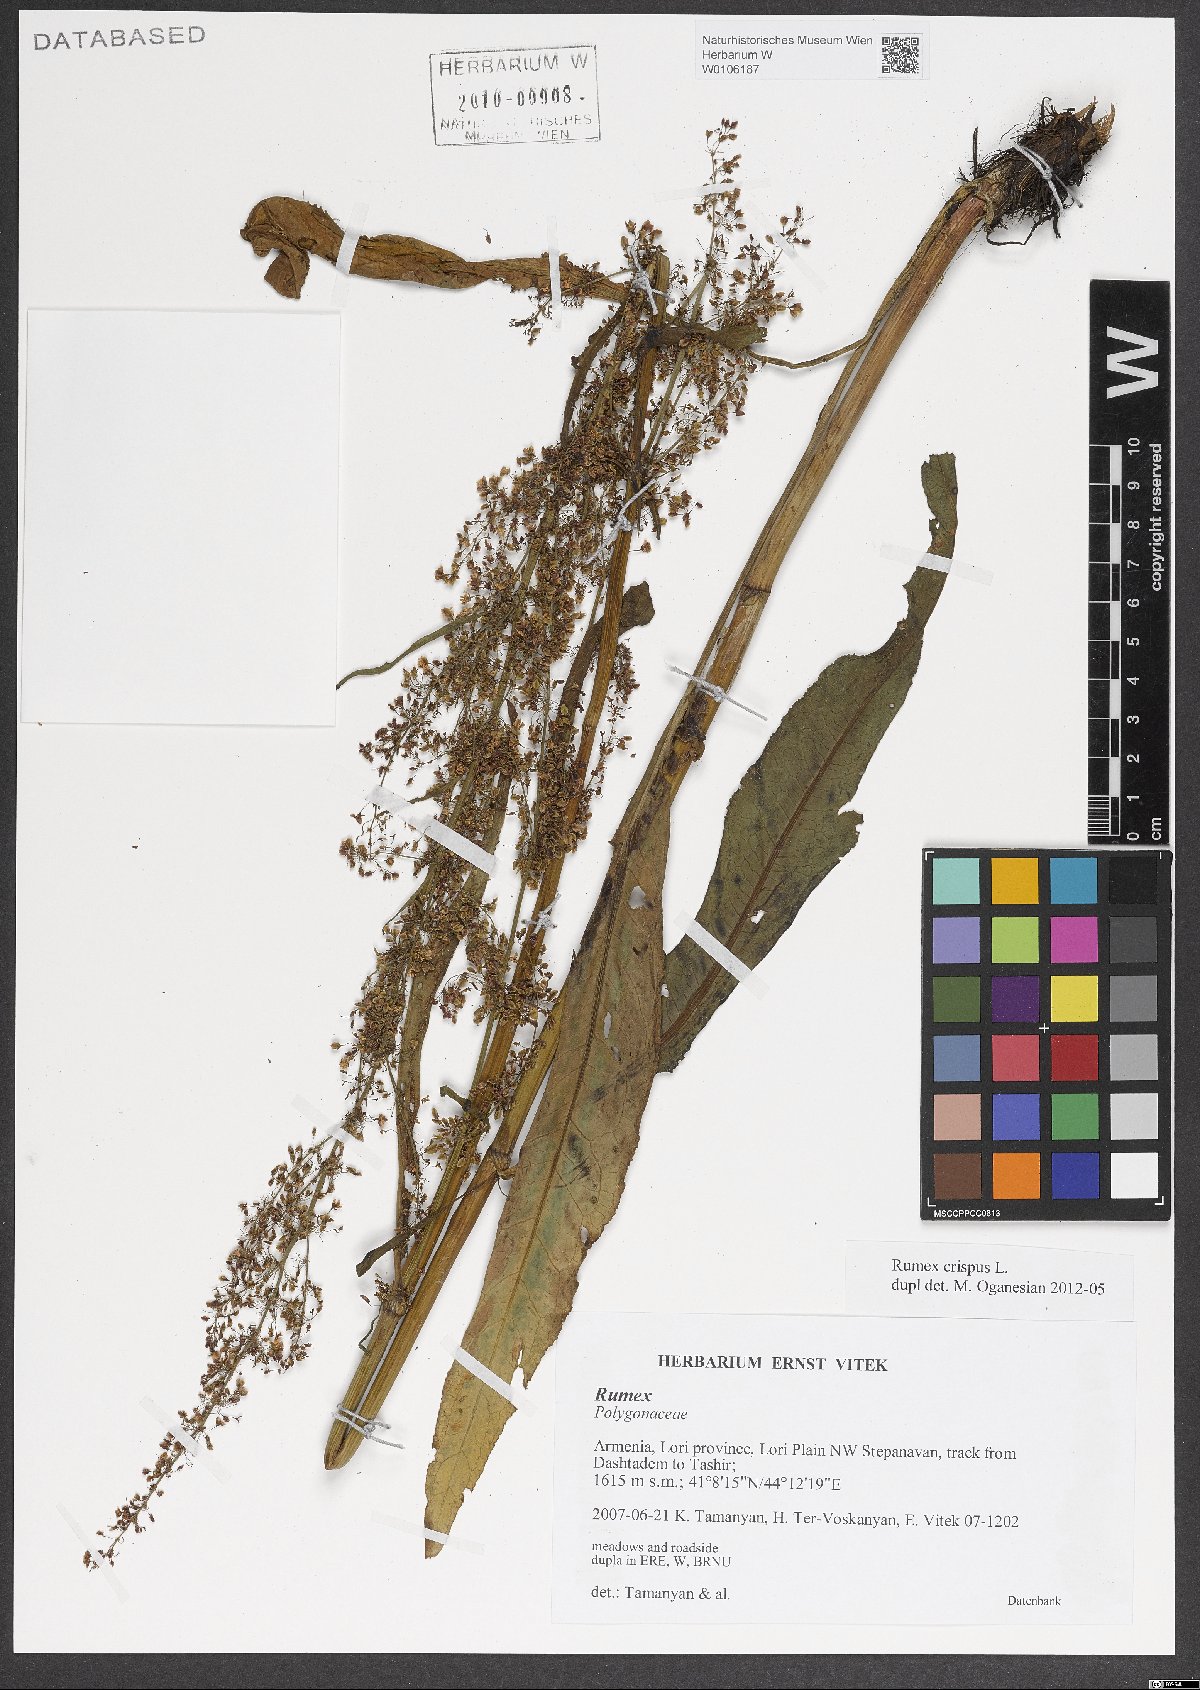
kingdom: Plantae
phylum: Tracheophyta
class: Magnoliopsida
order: Caryophyllales
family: Polygonaceae
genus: Rumex
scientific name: Rumex crispus
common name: Curled dock
